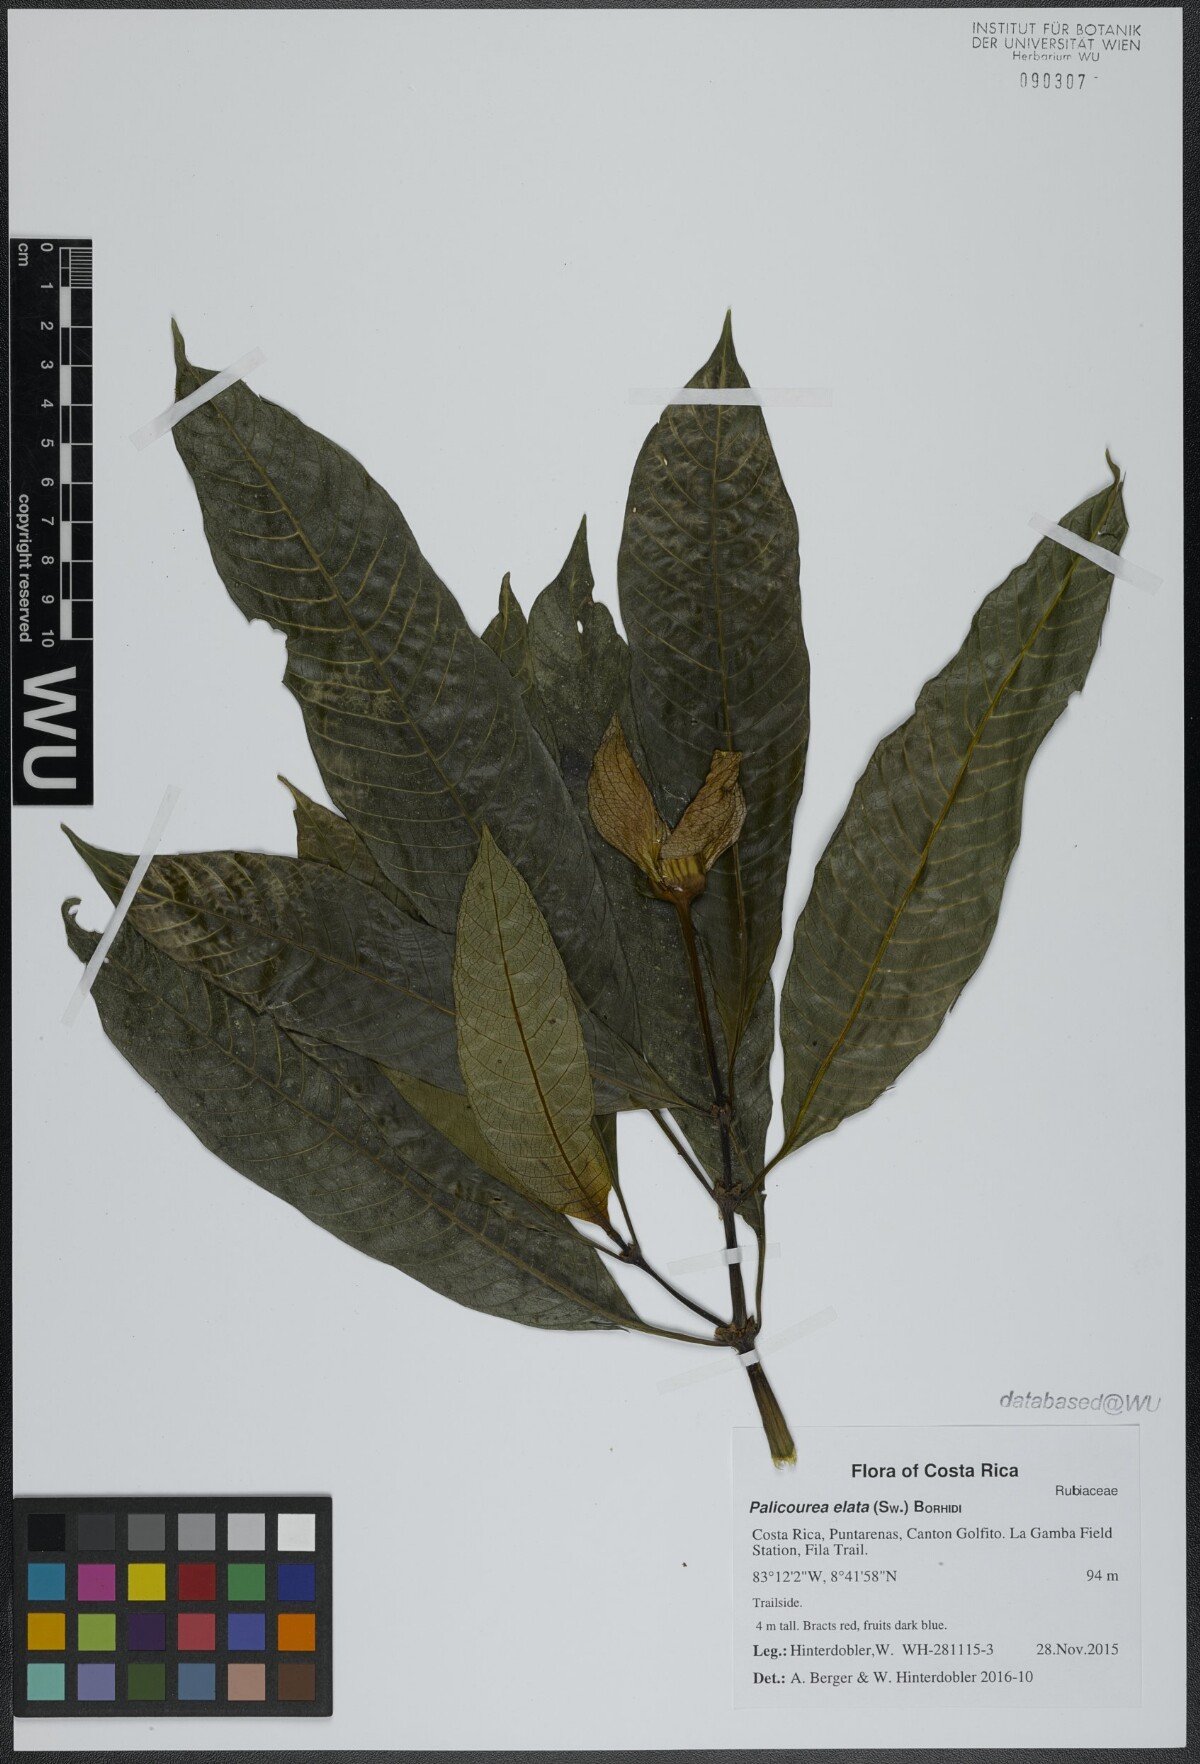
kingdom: Plantae
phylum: Tracheophyta
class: Magnoliopsida
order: Gentianales
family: Rubiaceae
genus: Palicourea
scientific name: Palicourea elata
